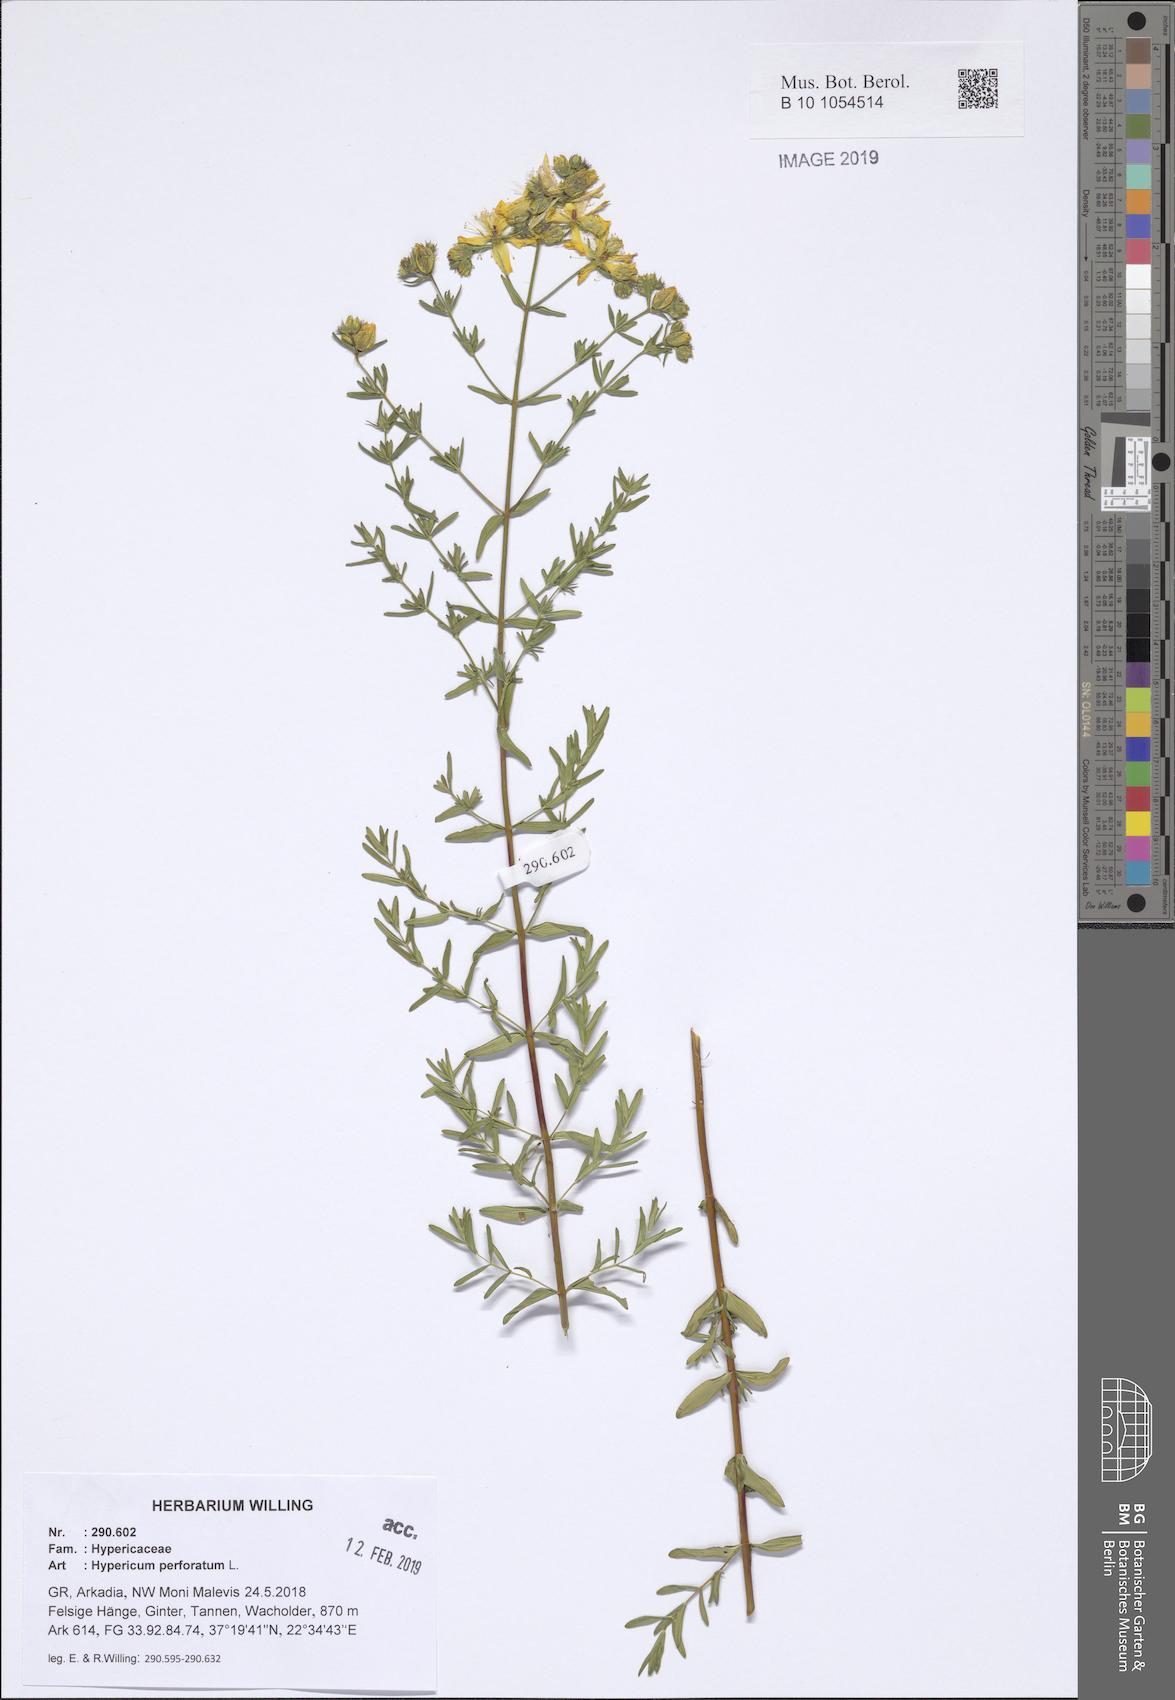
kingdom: Plantae
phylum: Tracheophyta
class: Magnoliopsida
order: Malpighiales
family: Hypericaceae
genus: Hypericum
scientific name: Hypericum perforatum
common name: Common st. johnswort
